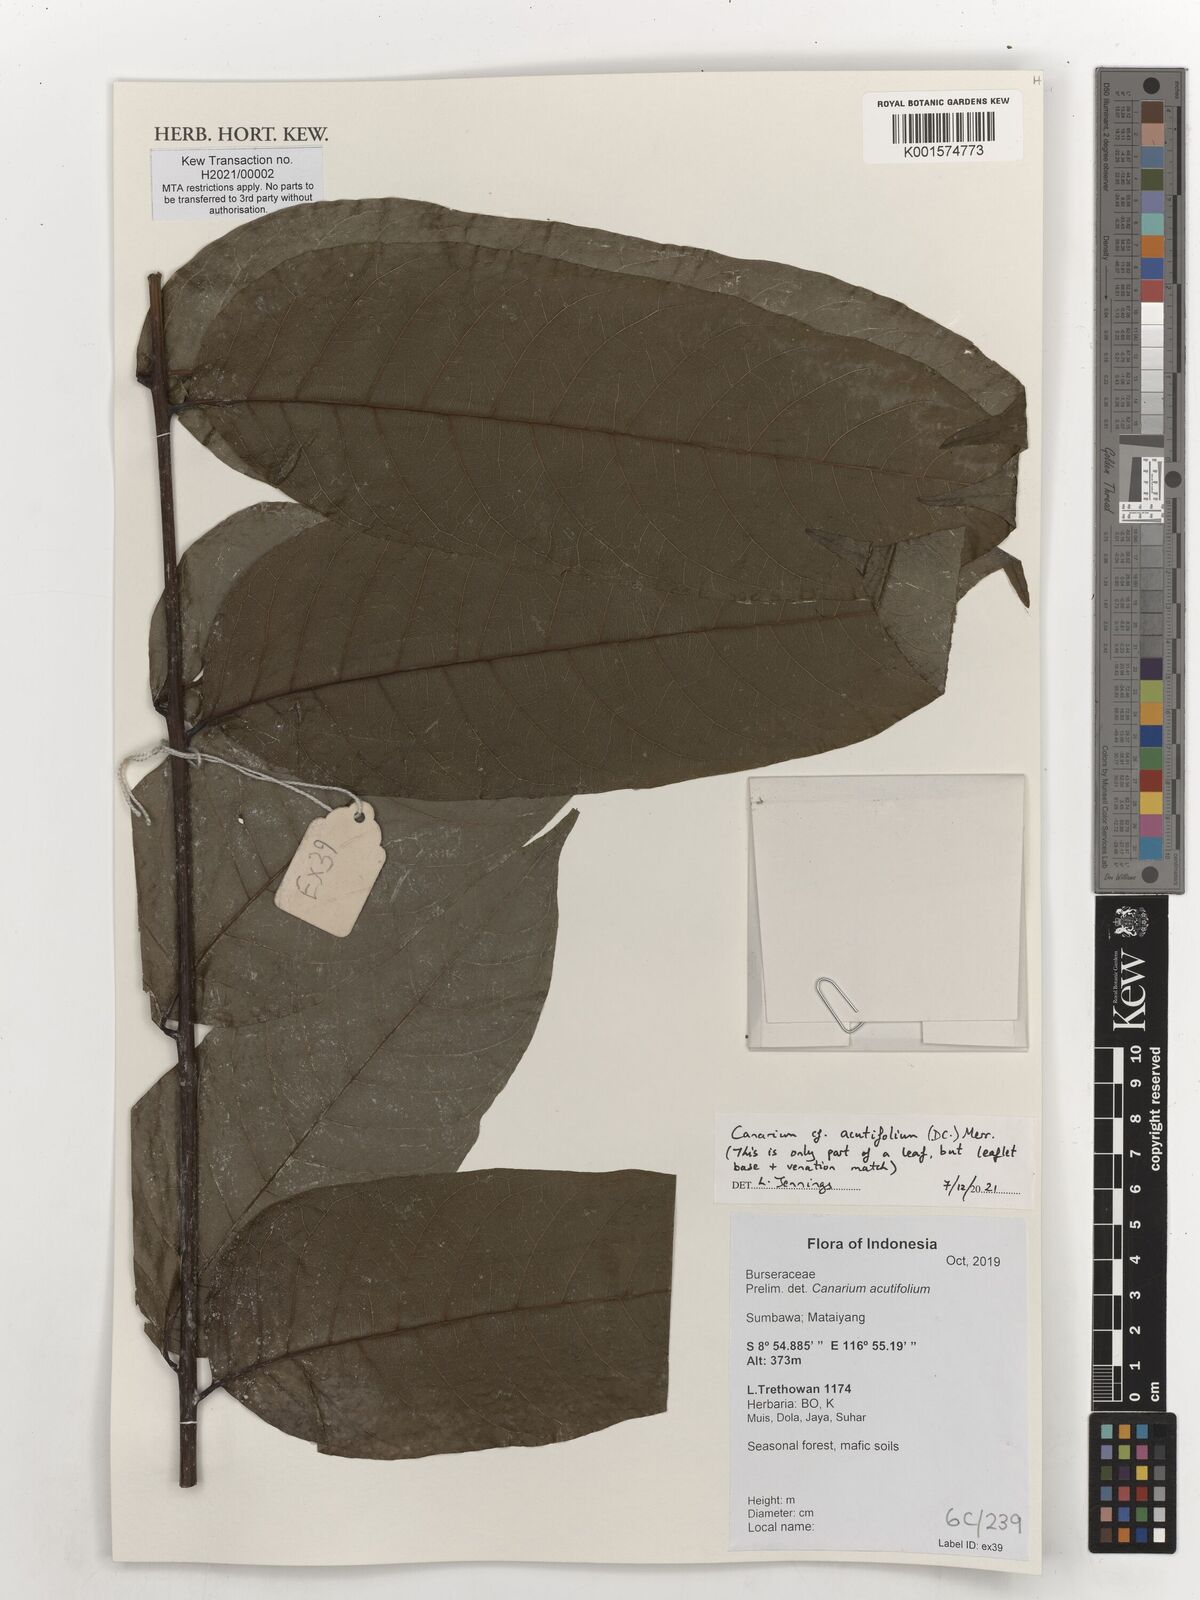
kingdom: Plantae
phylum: Tracheophyta
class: Magnoliopsida
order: Sapindales
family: Burseraceae
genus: Canarium
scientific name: Canarium acutifolium
